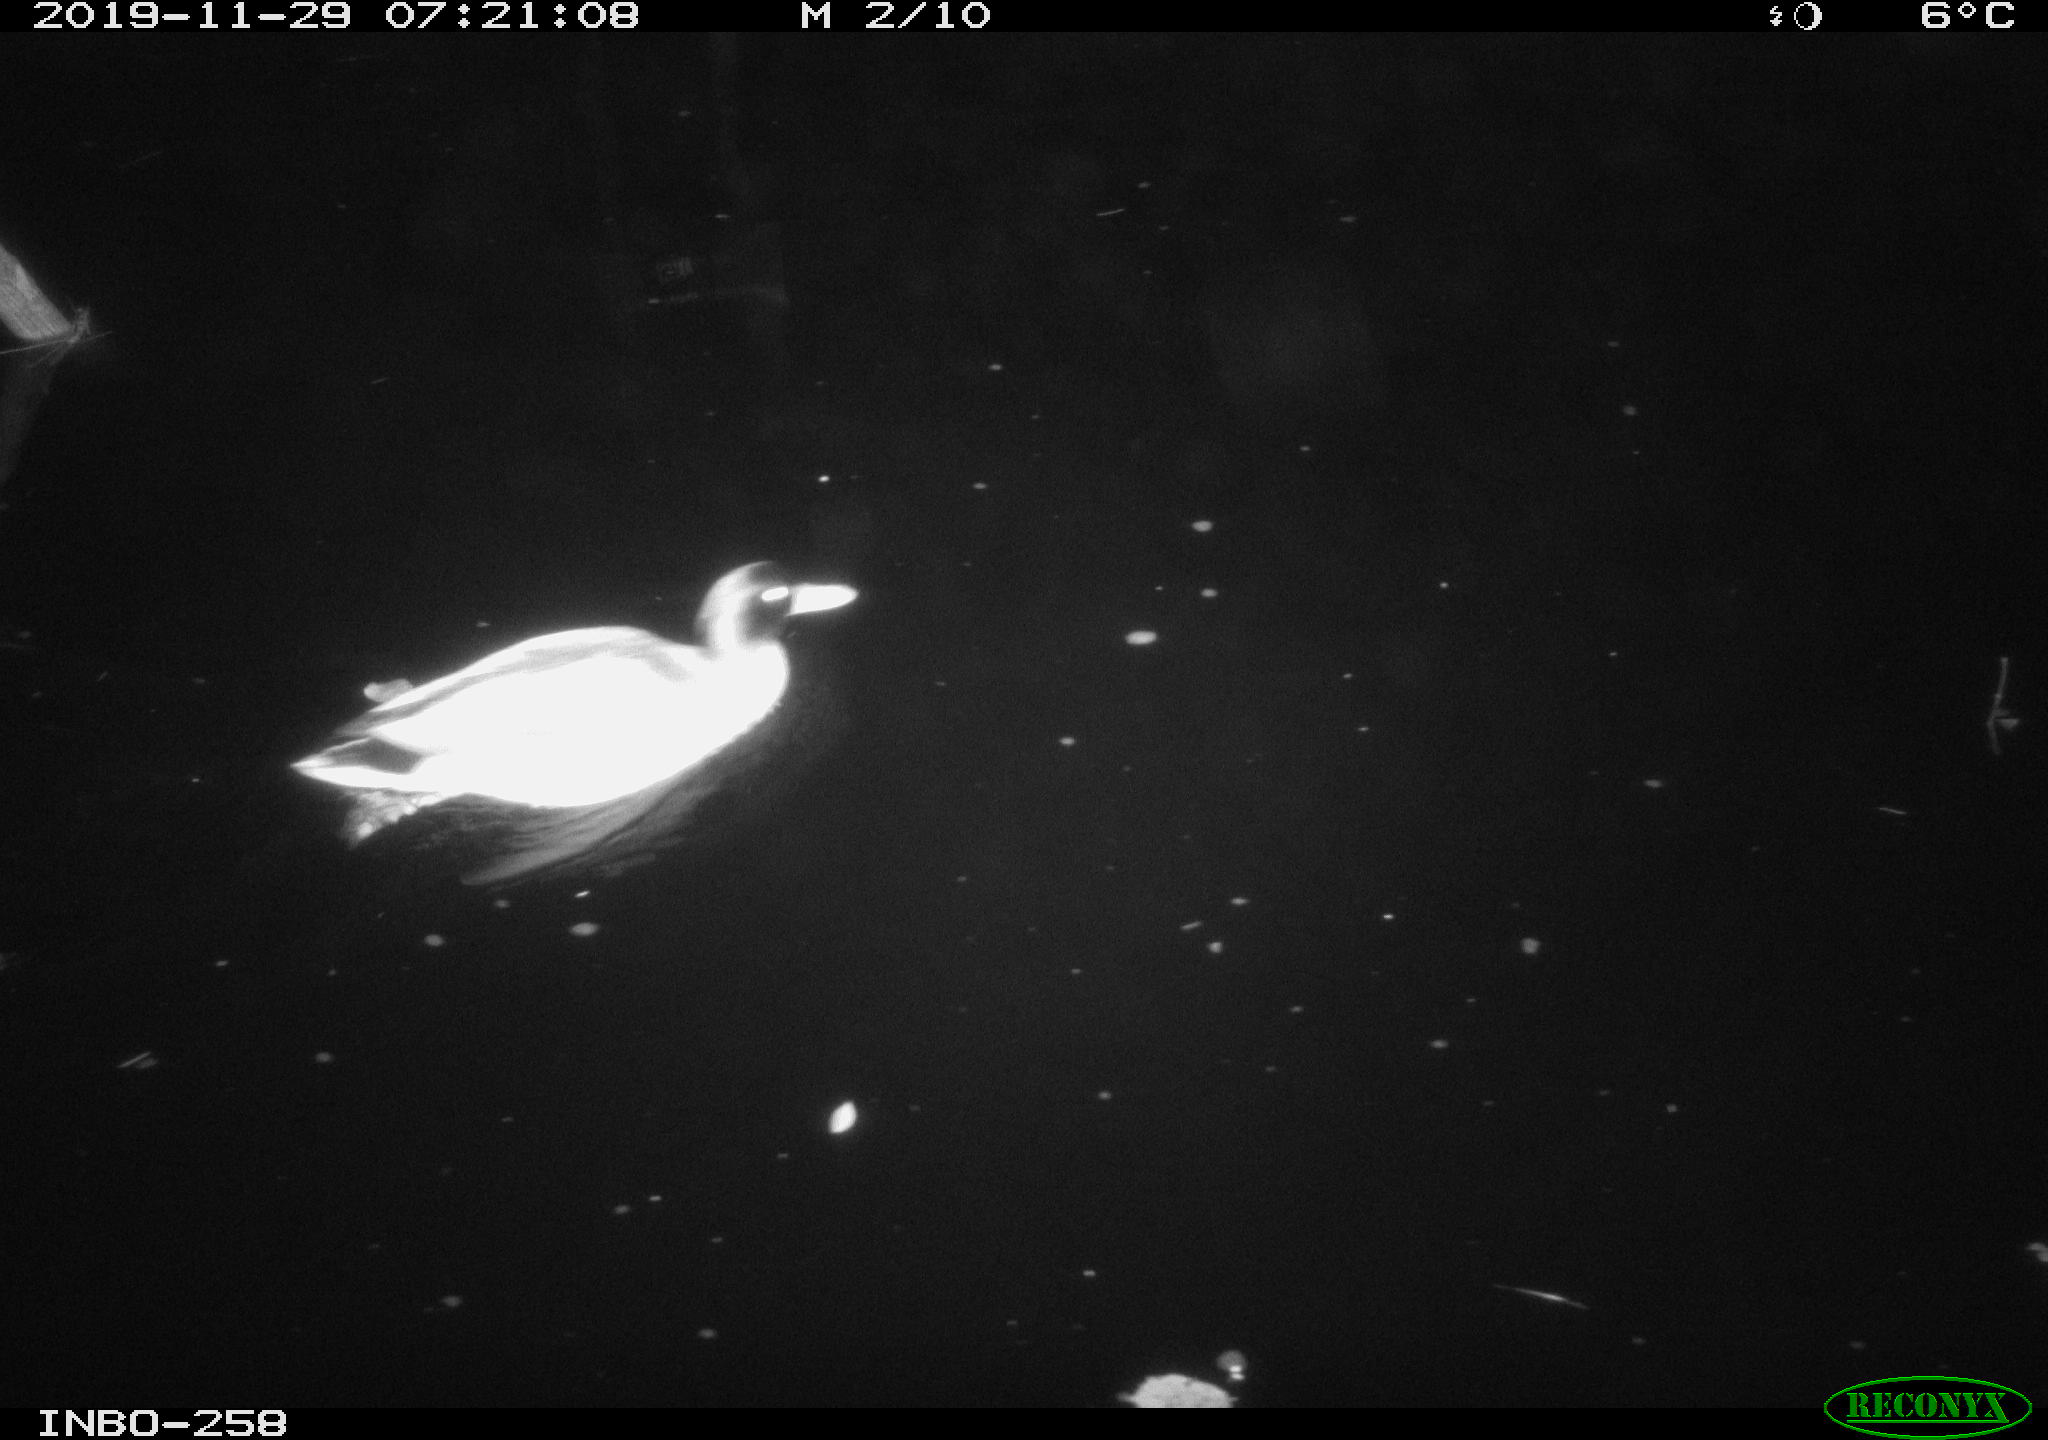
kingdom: Animalia
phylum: Chordata
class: Aves
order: Anseriformes
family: Anatidae
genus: Anas
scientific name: Anas platyrhynchos
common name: Mallard
